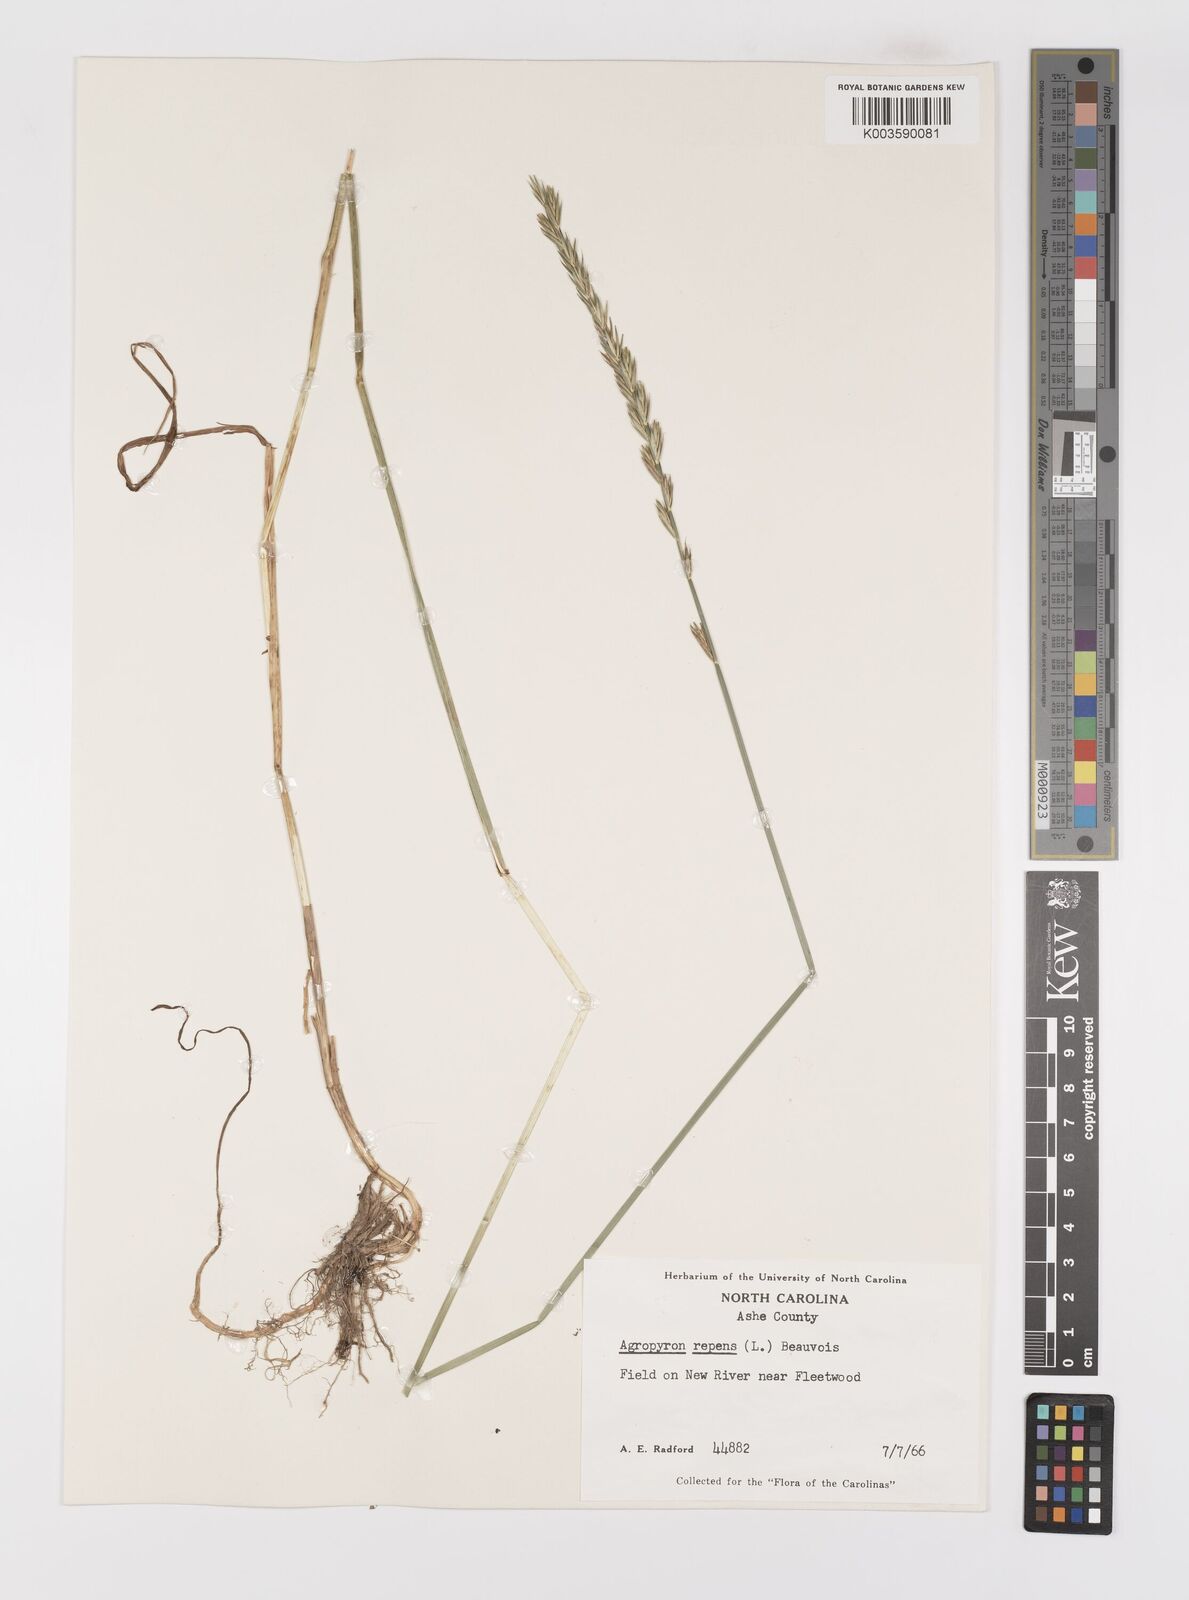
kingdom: Plantae
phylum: Tracheophyta
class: Liliopsida
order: Poales
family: Poaceae
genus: Elymus
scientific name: Elymus repens
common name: Quackgrass
